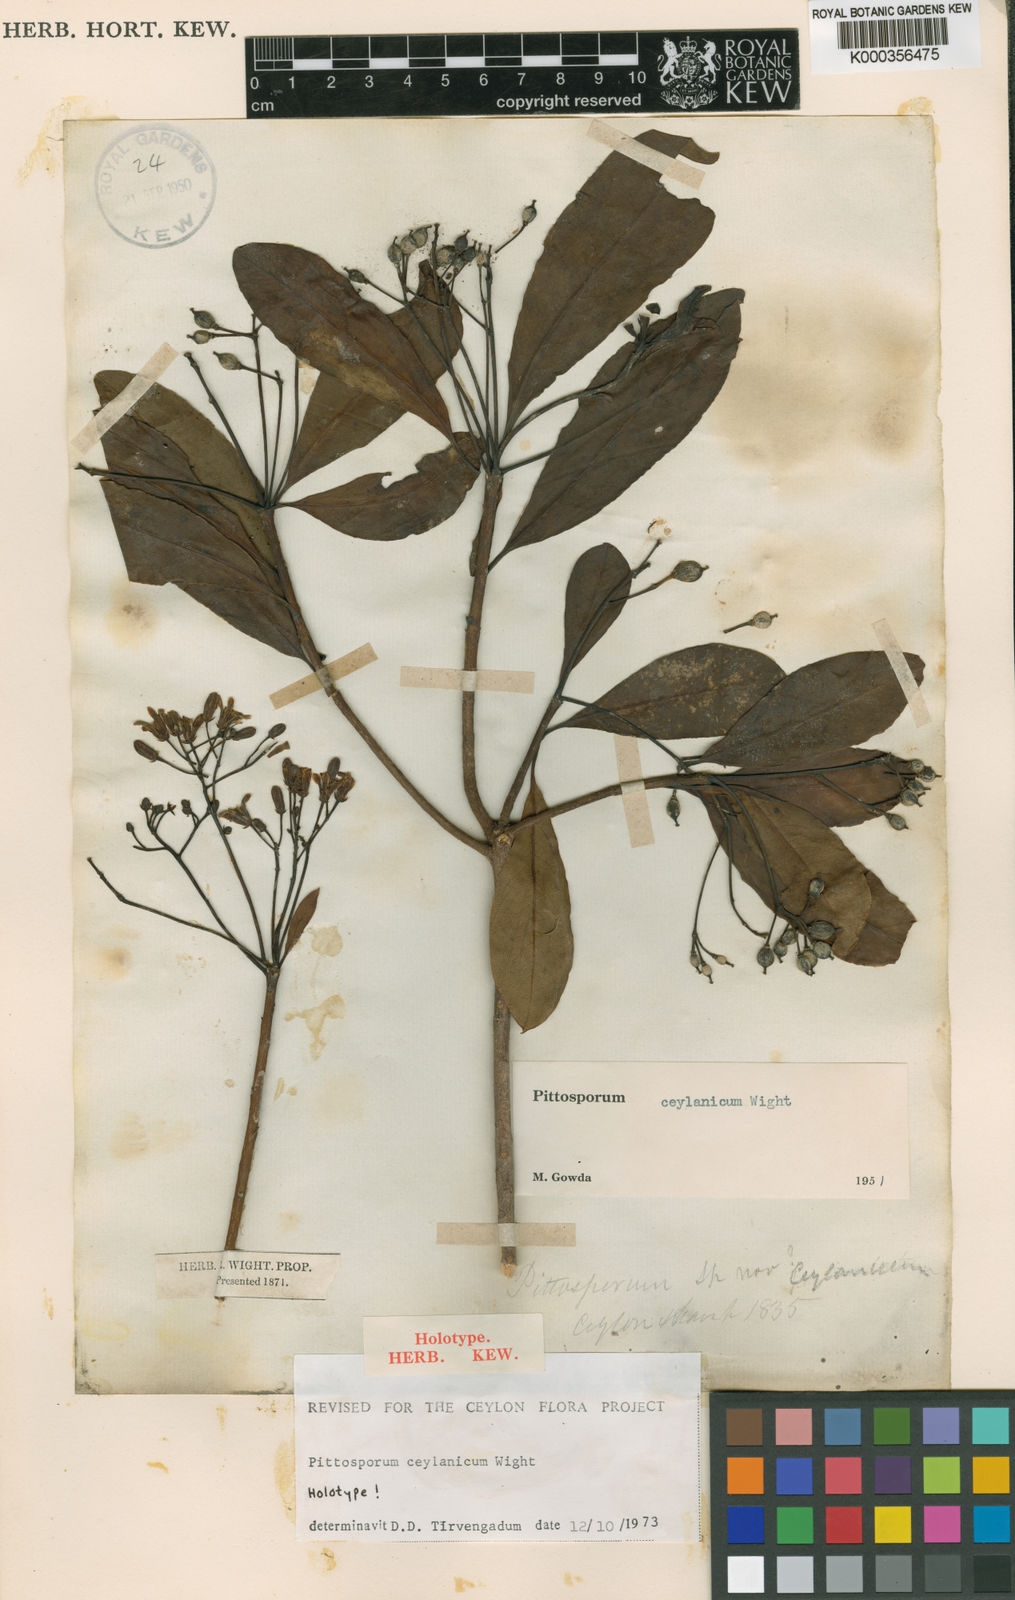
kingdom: Plantae
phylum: Tracheophyta
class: Magnoliopsida
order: Apiales
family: Pittosporaceae
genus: Pittosporum
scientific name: Pittosporum ceylanicum
